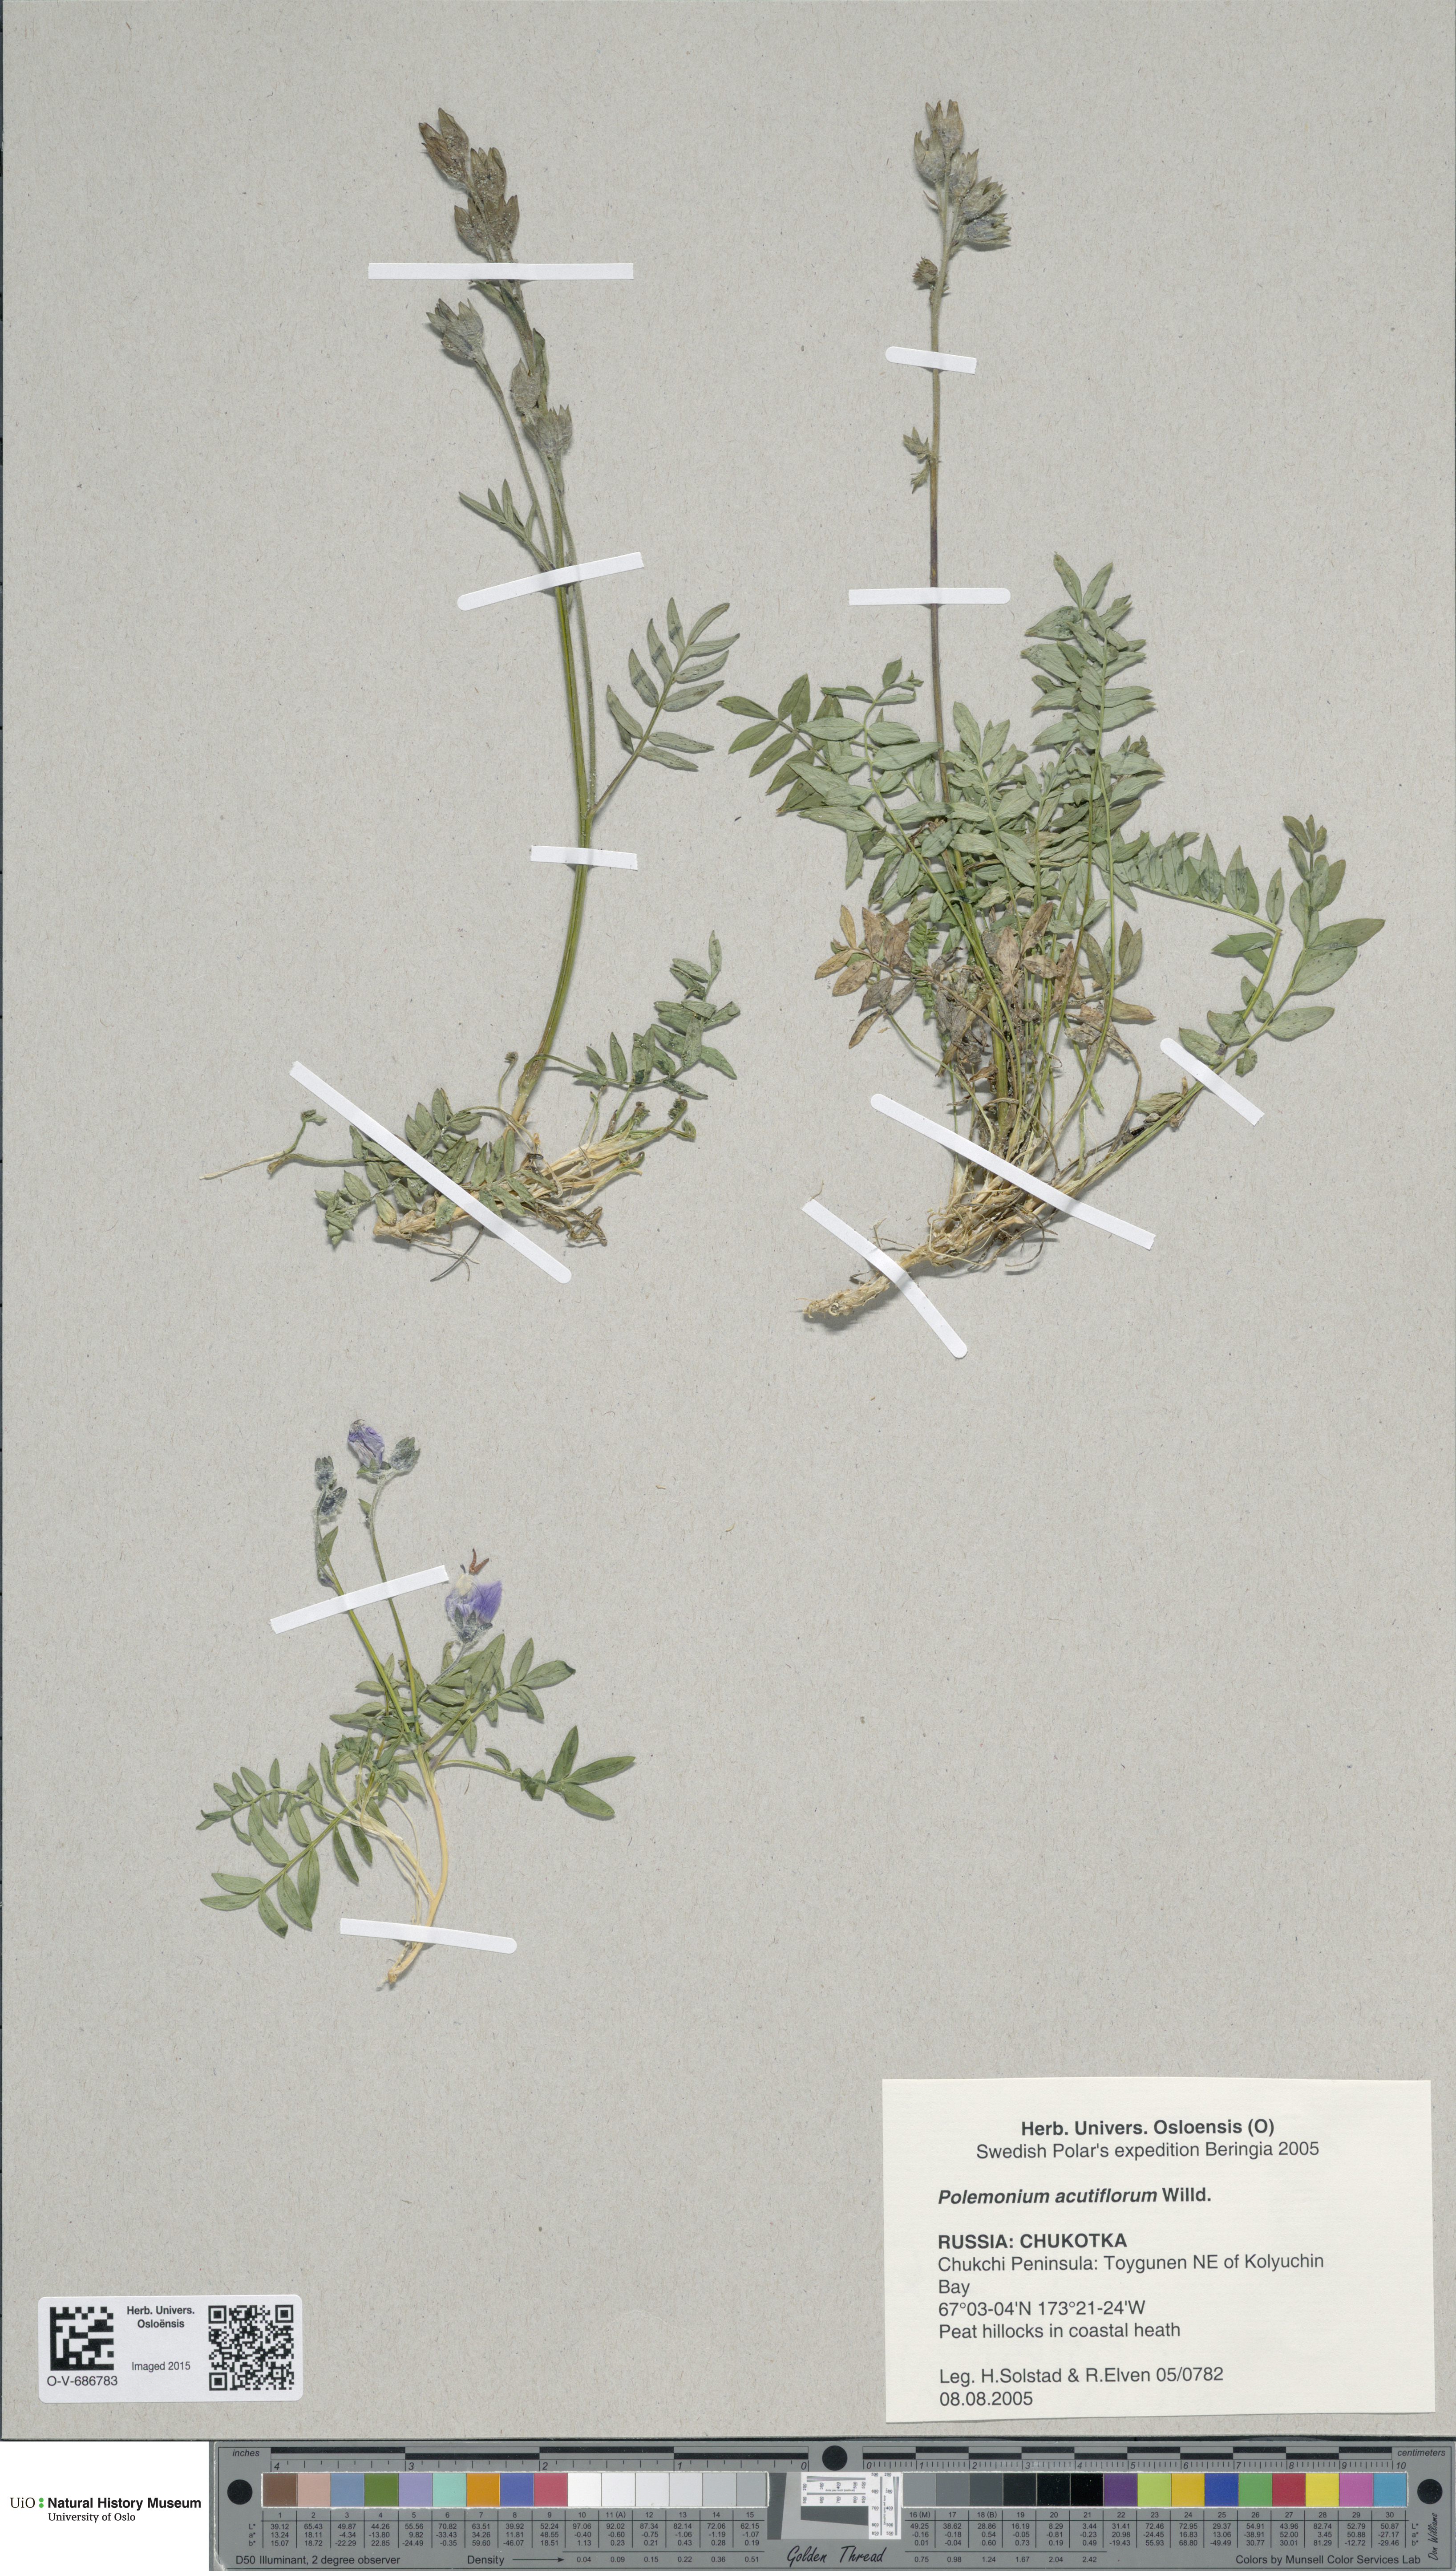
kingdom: Plantae
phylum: Tracheophyta
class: Magnoliopsida
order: Ericales
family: Polemoniaceae
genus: Polemonium
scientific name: Polemonium villosum
